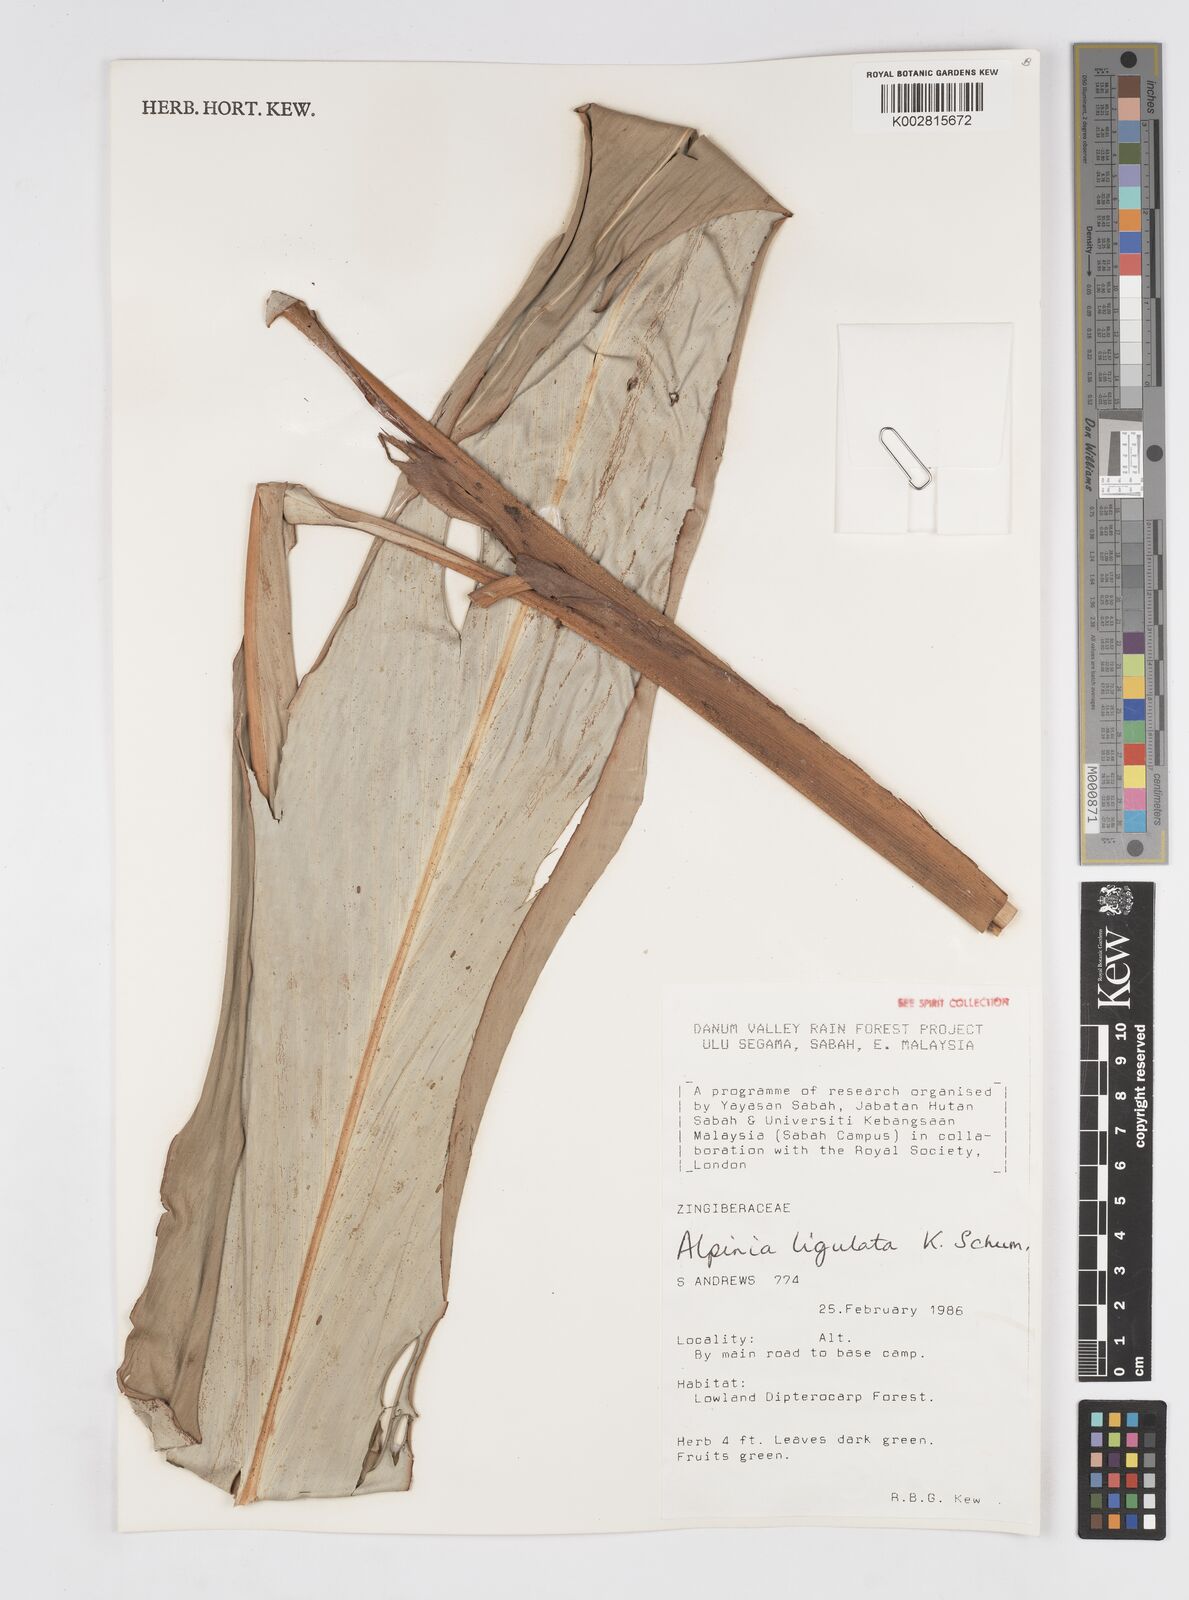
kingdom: Plantae
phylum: Tracheophyta
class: Liliopsida
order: Zingiberales
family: Zingiberaceae
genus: Alpinia
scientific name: Alpinia ligulata
